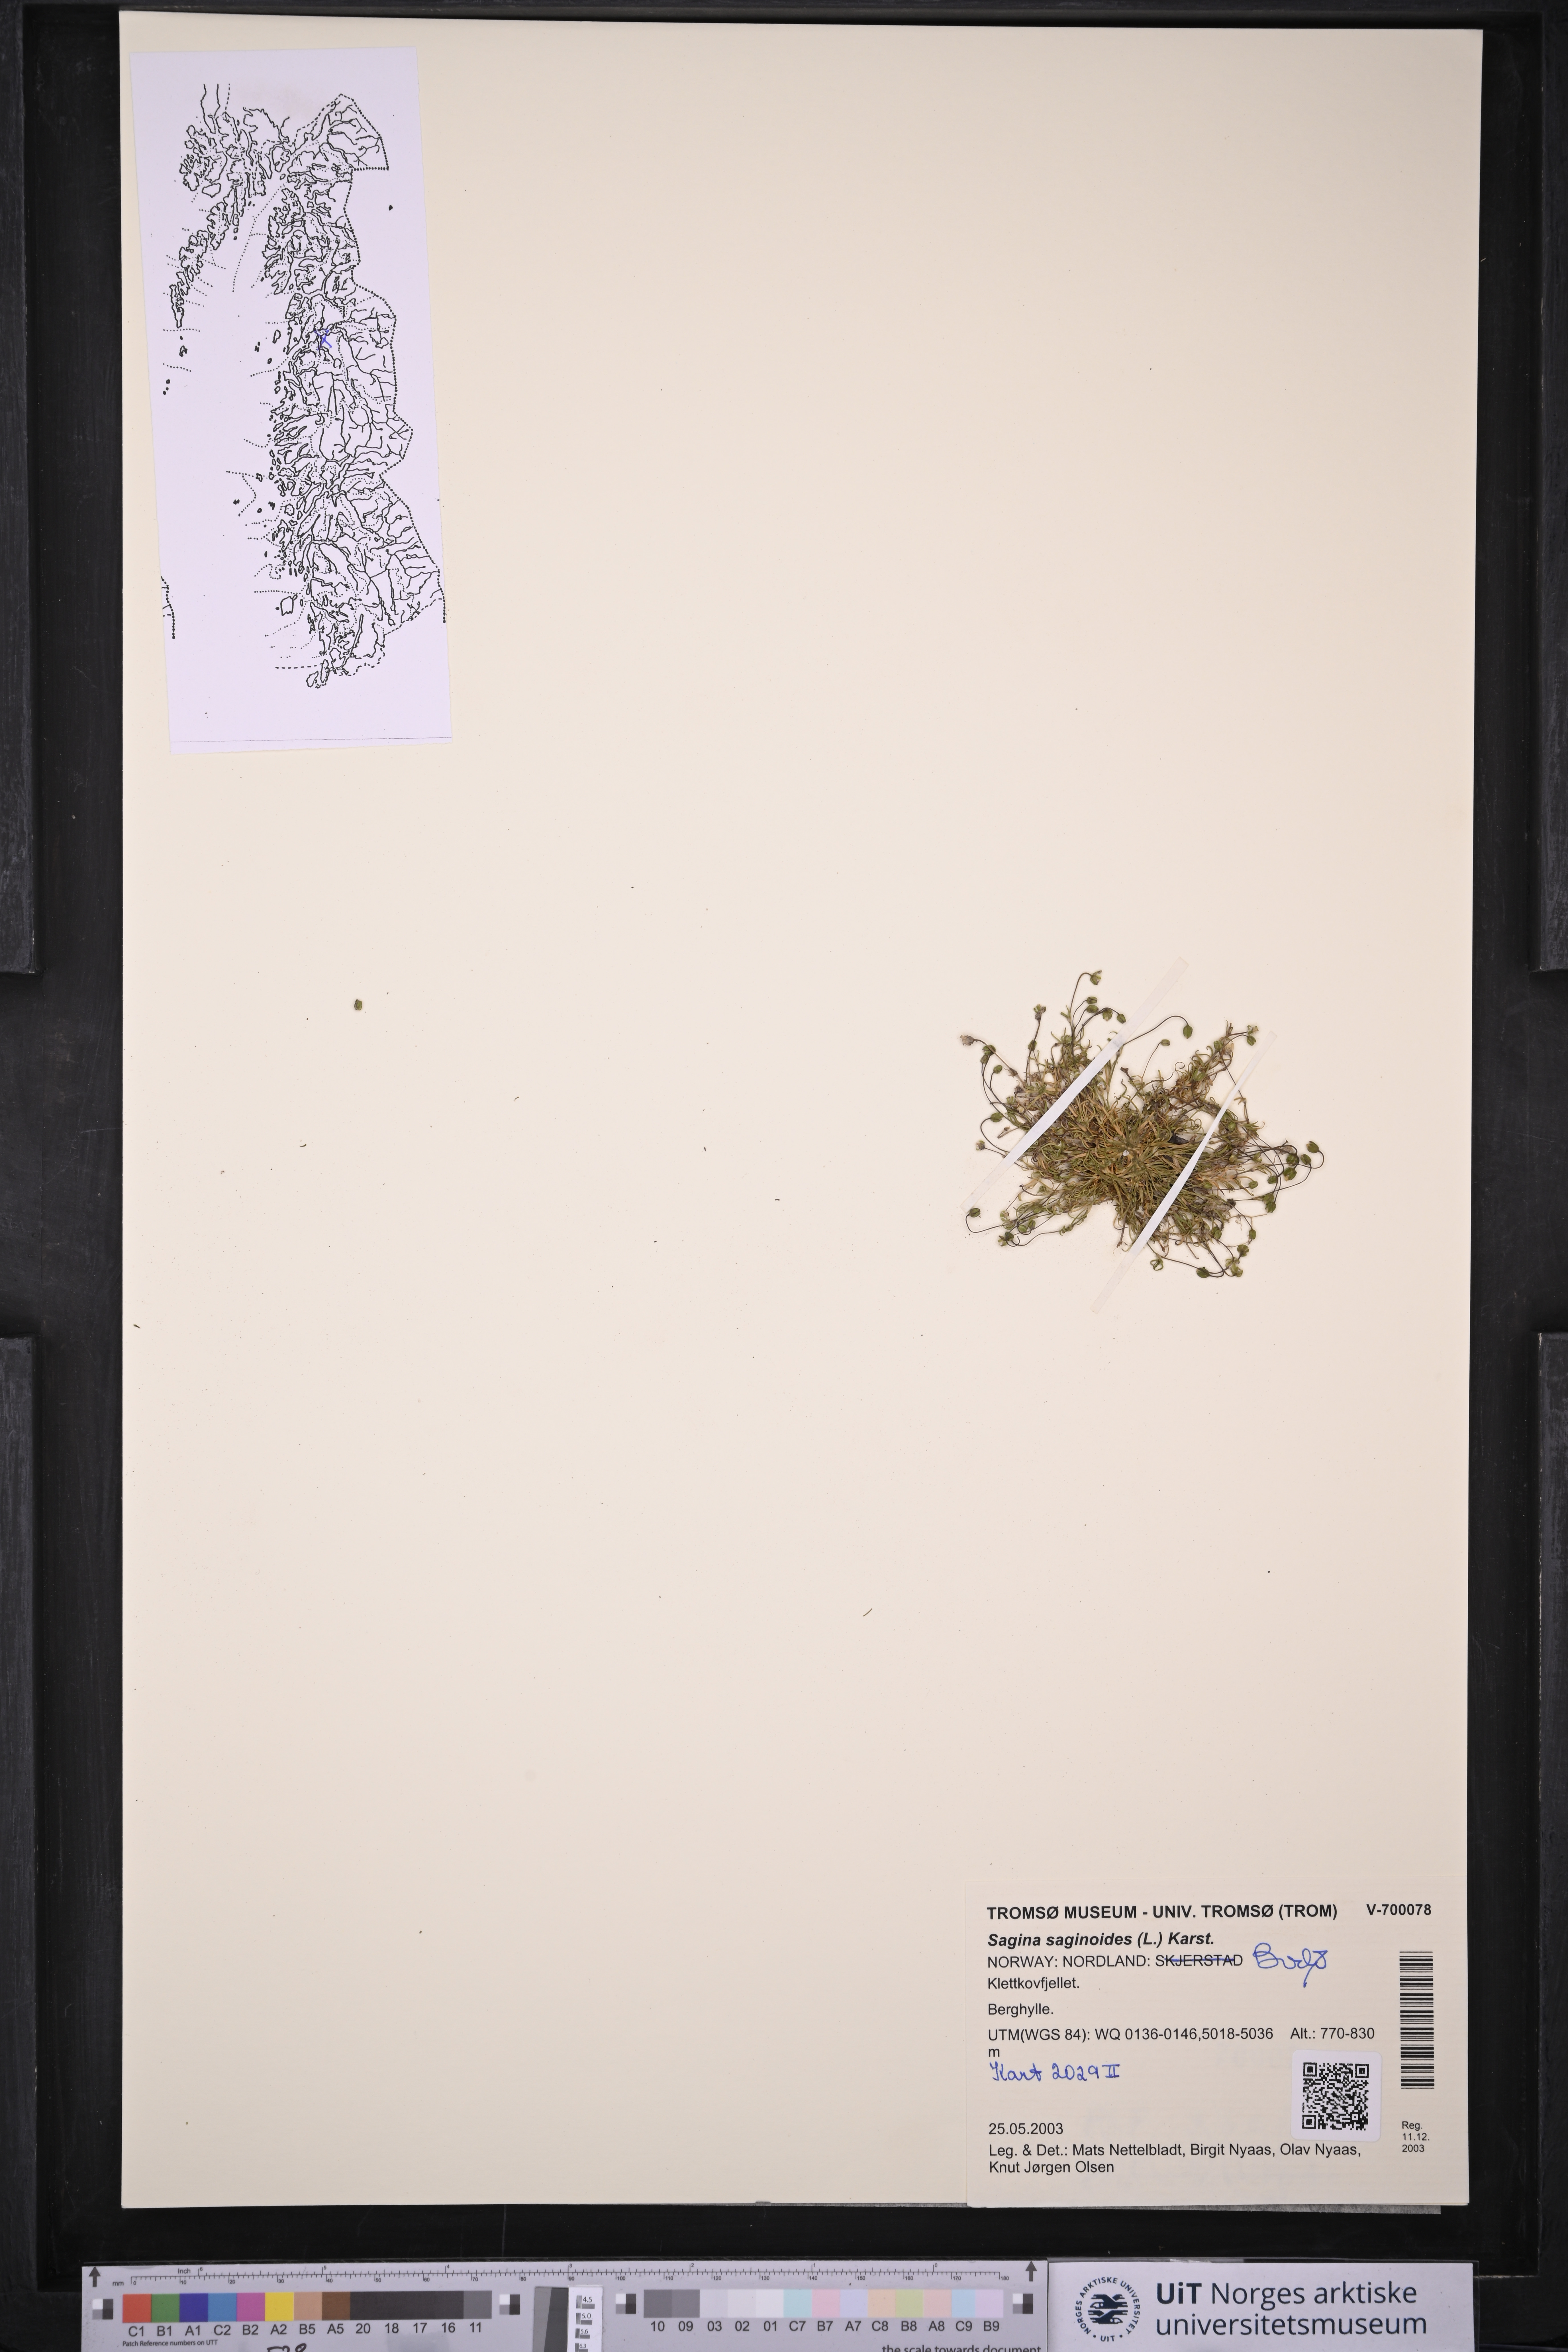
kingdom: Plantae
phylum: Tracheophyta
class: Magnoliopsida
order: Caryophyllales
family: Caryophyllaceae
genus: Sagina
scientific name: Sagina saginoides
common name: Alpine pearlwort
